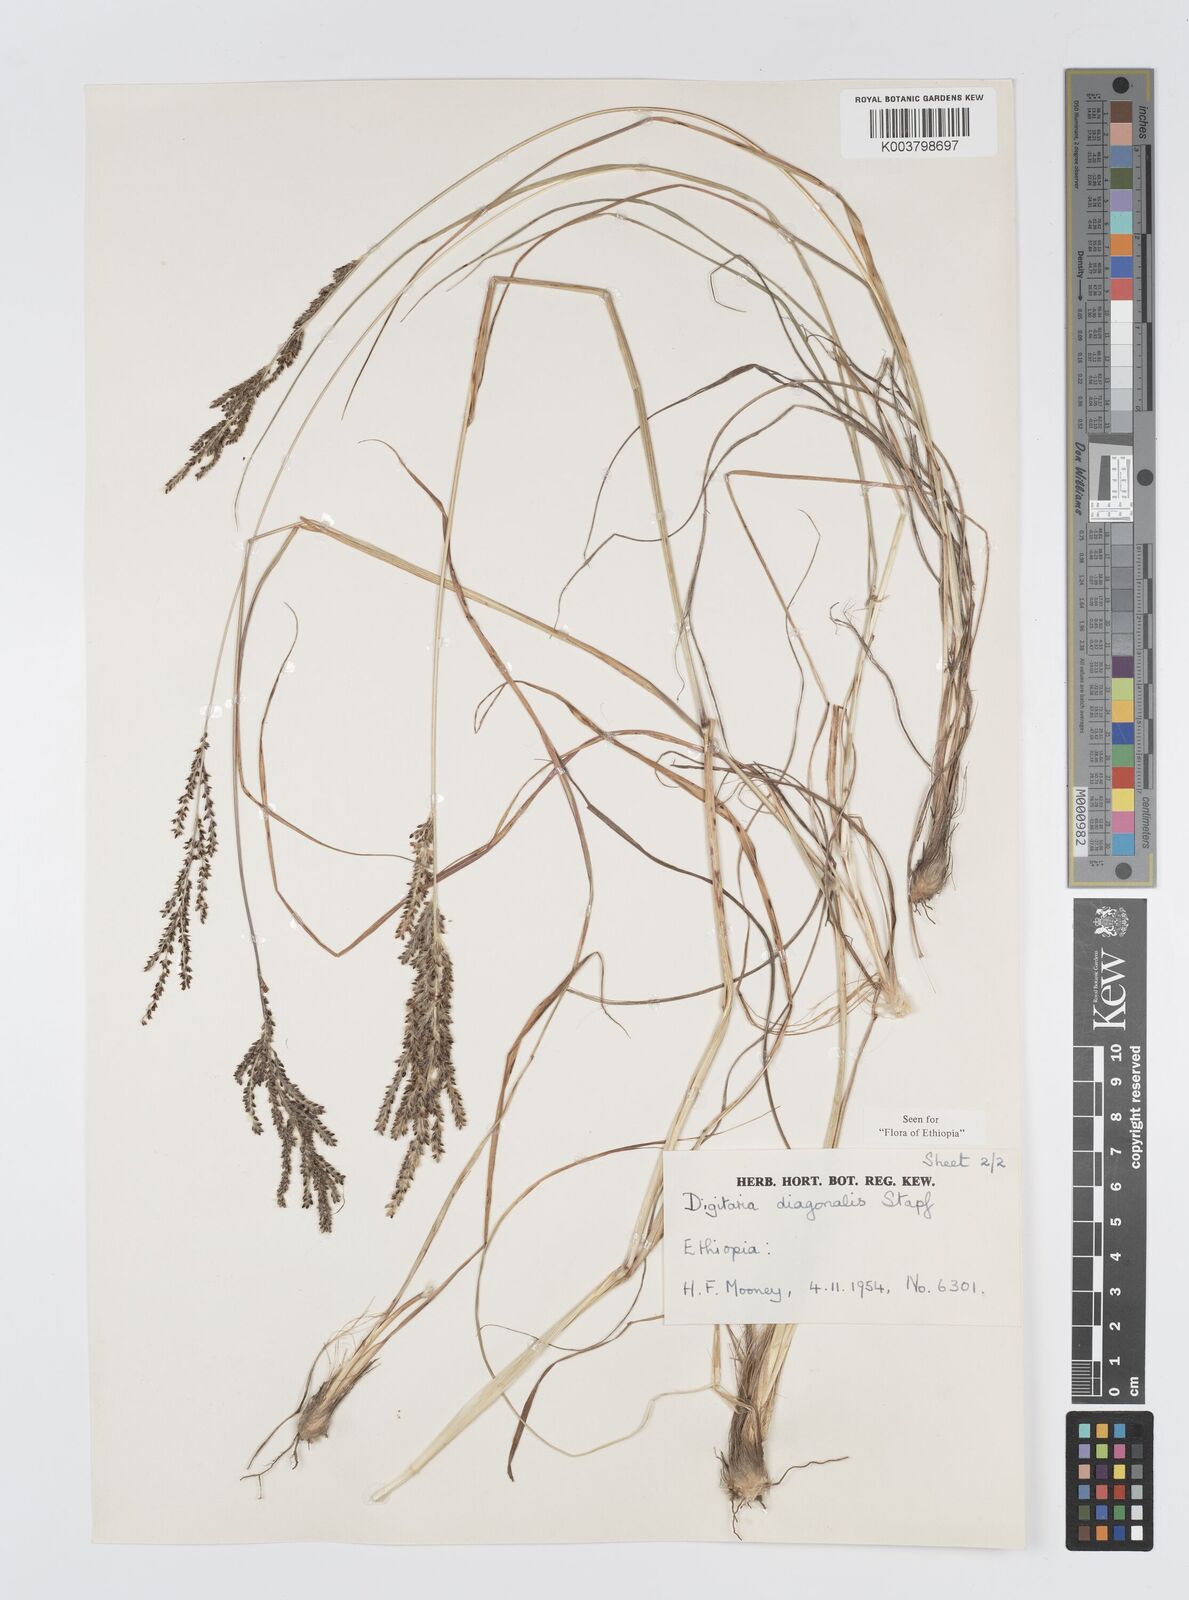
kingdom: Plantae
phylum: Tracheophyta
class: Liliopsida
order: Poales
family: Poaceae
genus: Digitaria
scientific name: Digitaria diagonalis
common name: Brown-seed finger grass
